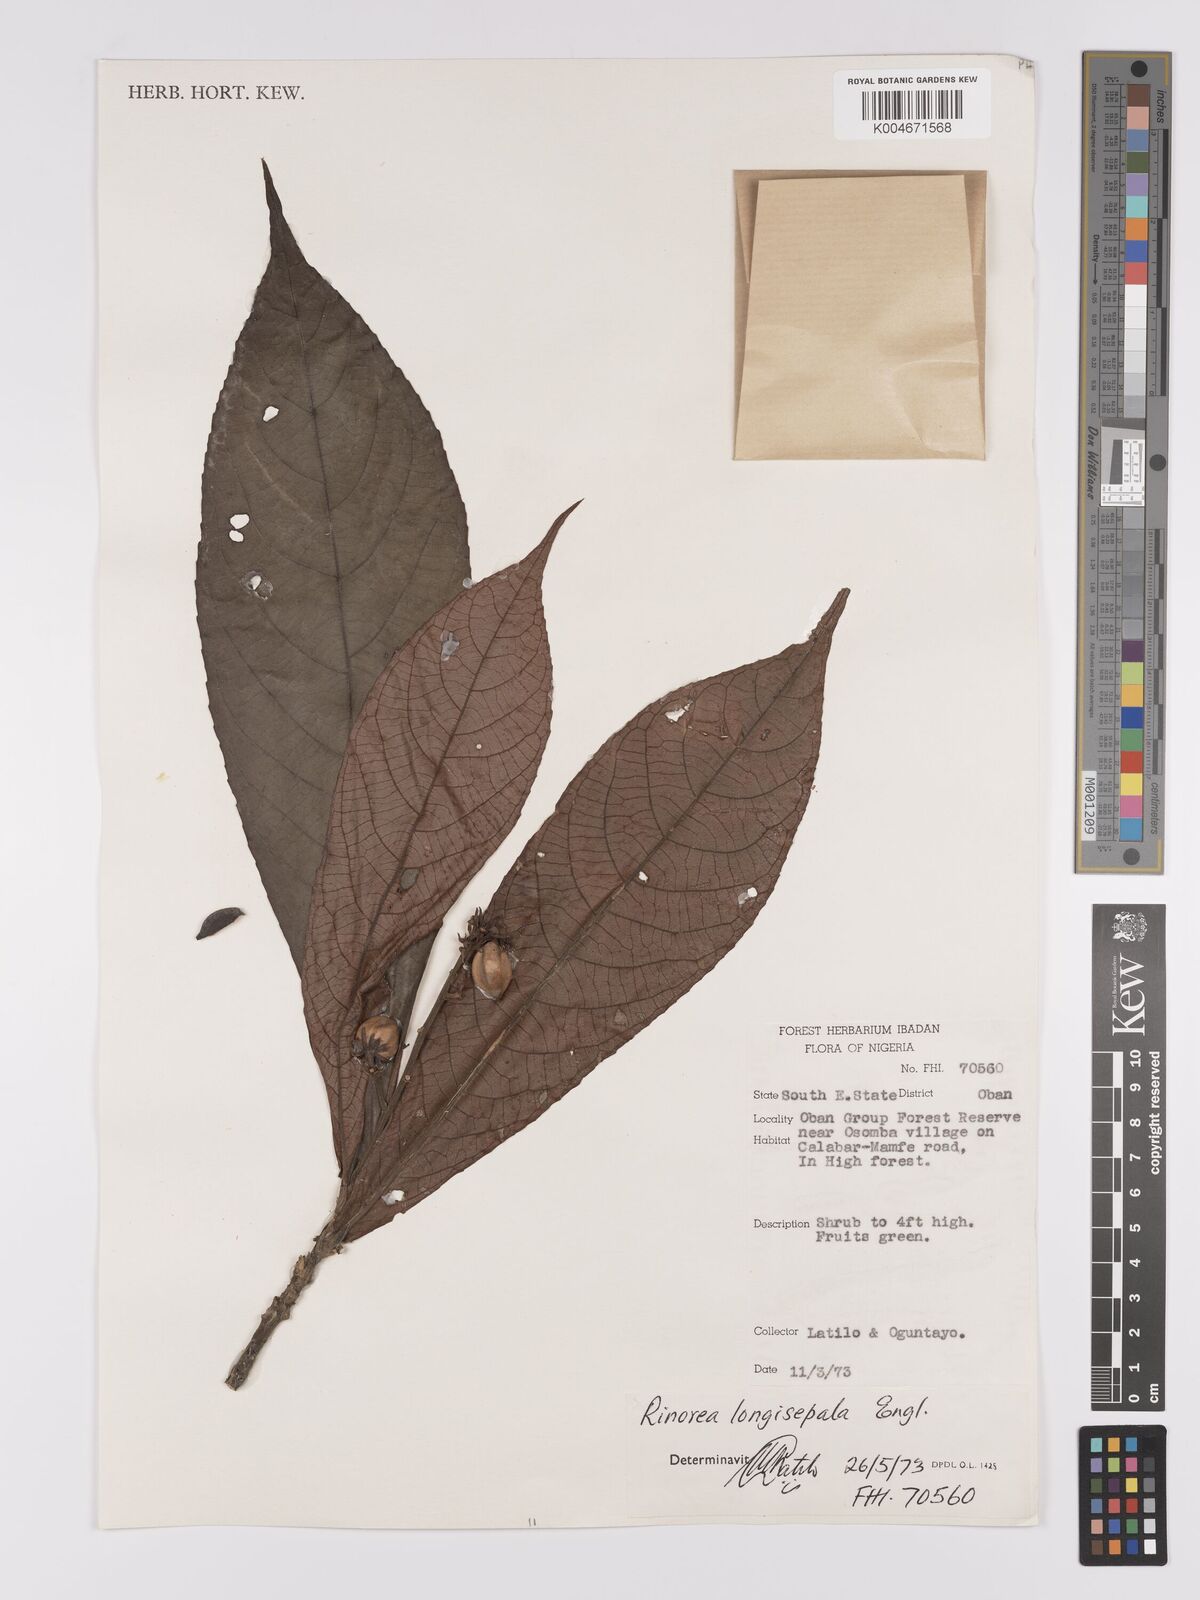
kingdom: Plantae
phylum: Tracheophyta
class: Magnoliopsida
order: Malpighiales
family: Violaceae
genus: Rinorea
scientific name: Rinorea longisepala
